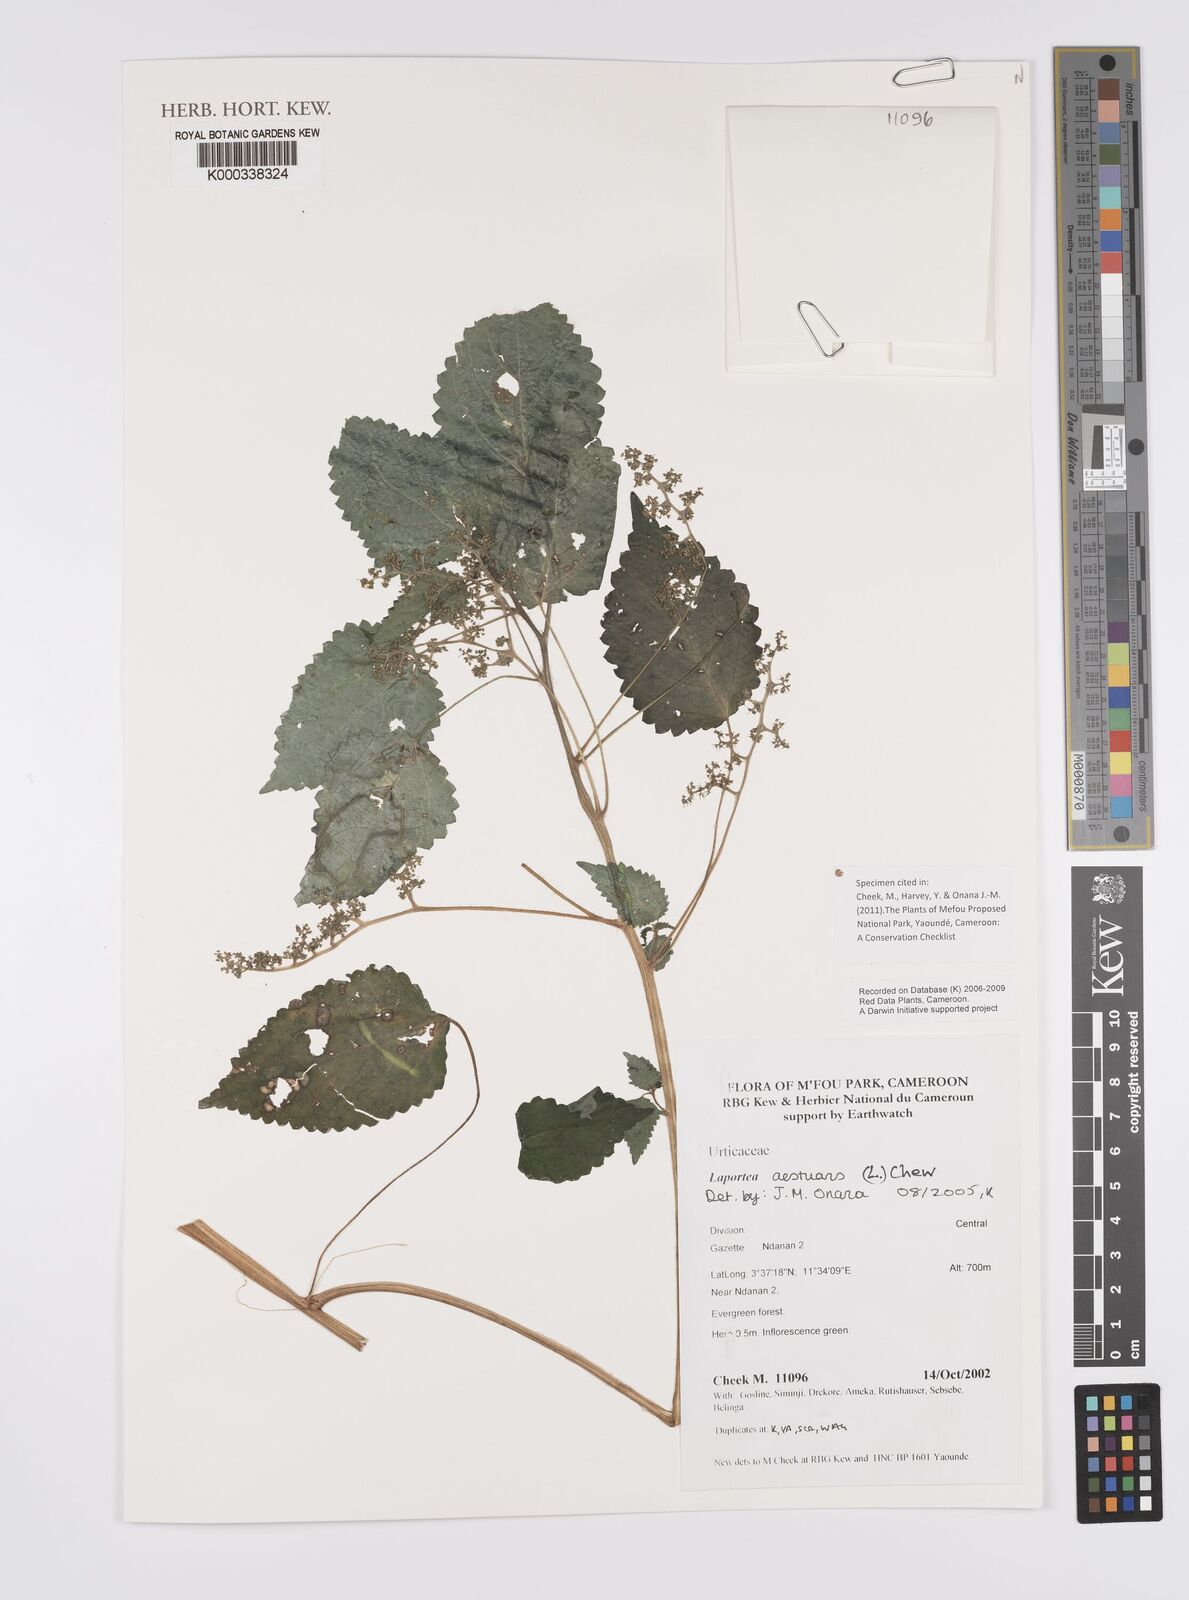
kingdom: Plantae
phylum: Tracheophyta
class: Magnoliopsida
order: Rosales
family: Urticaceae
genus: Laportea
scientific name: Laportea aestuans
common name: West indian woodnettle
